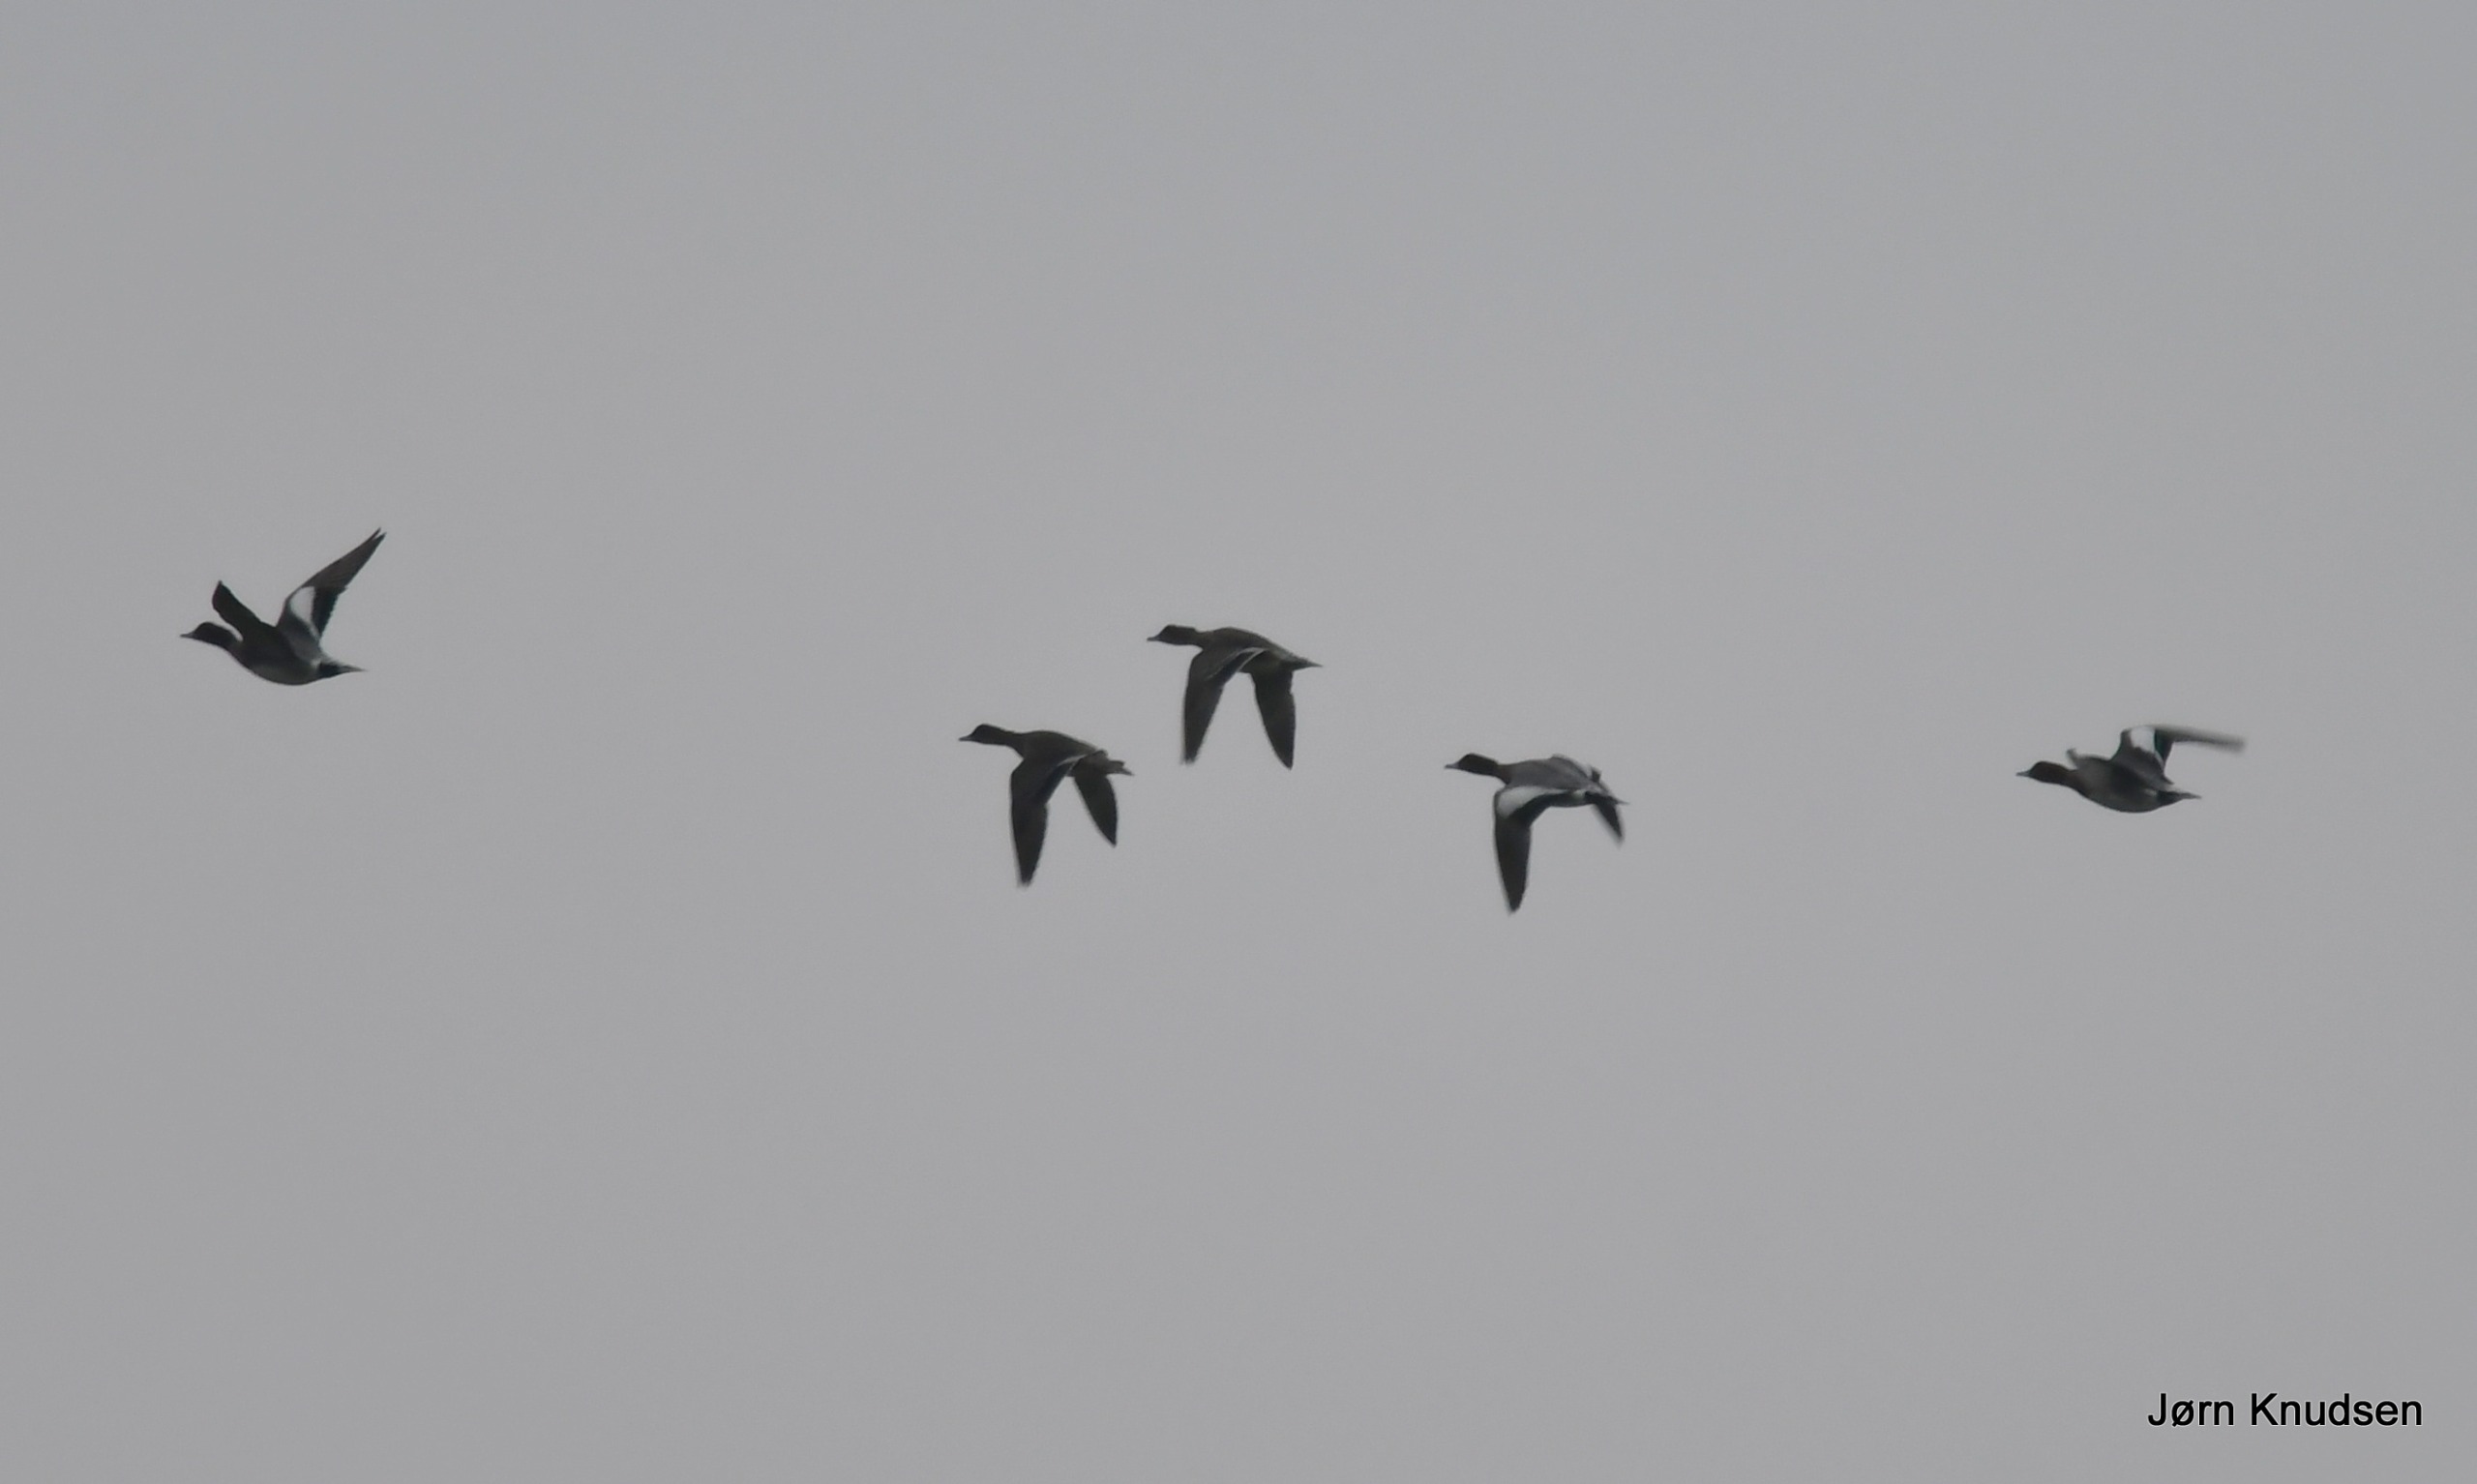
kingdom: Animalia
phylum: Chordata
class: Aves
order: Anseriformes
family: Anatidae
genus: Mareca
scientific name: Mareca penelope
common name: Pibeand
